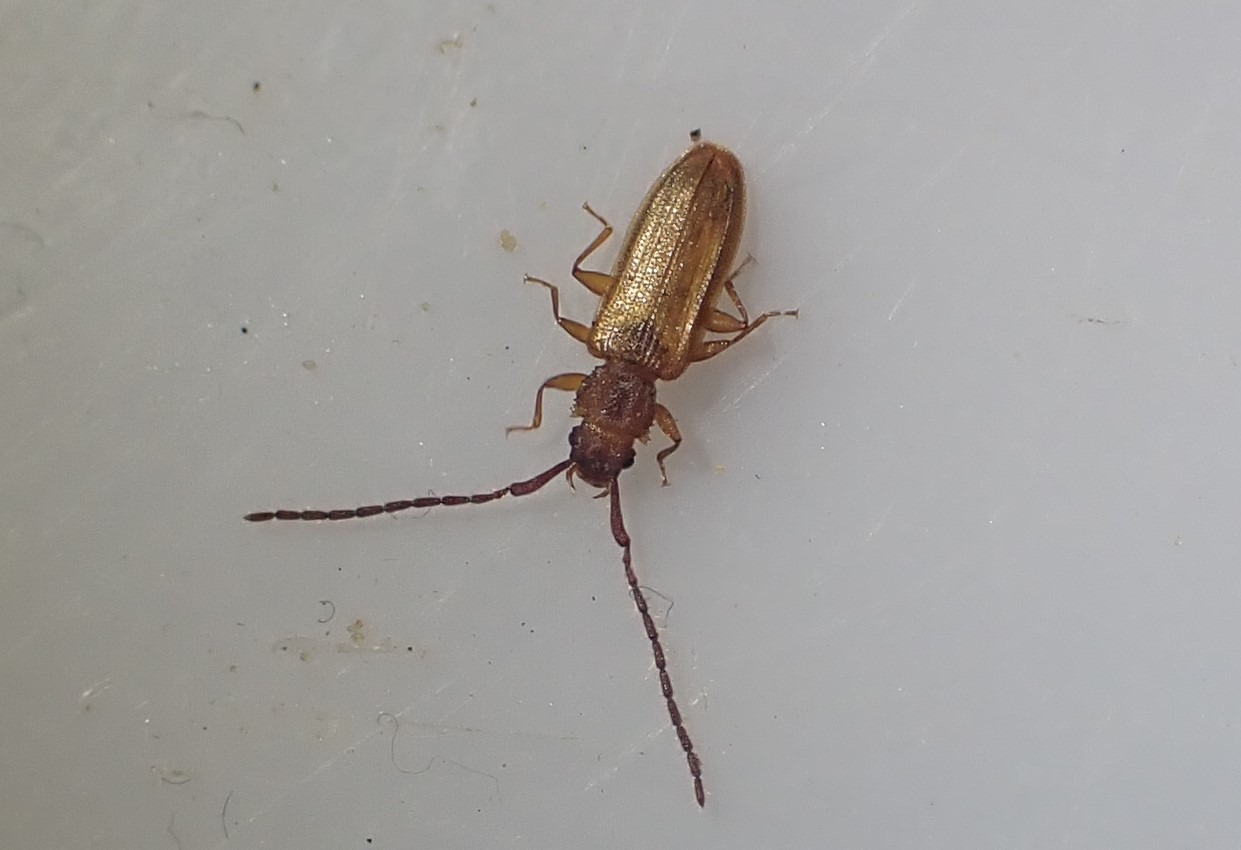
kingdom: Animalia
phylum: Arthropoda
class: Insecta
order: Coleoptera
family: Silvanidae
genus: Uleiota
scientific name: Uleiota planatus
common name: Langhornet fladbille
